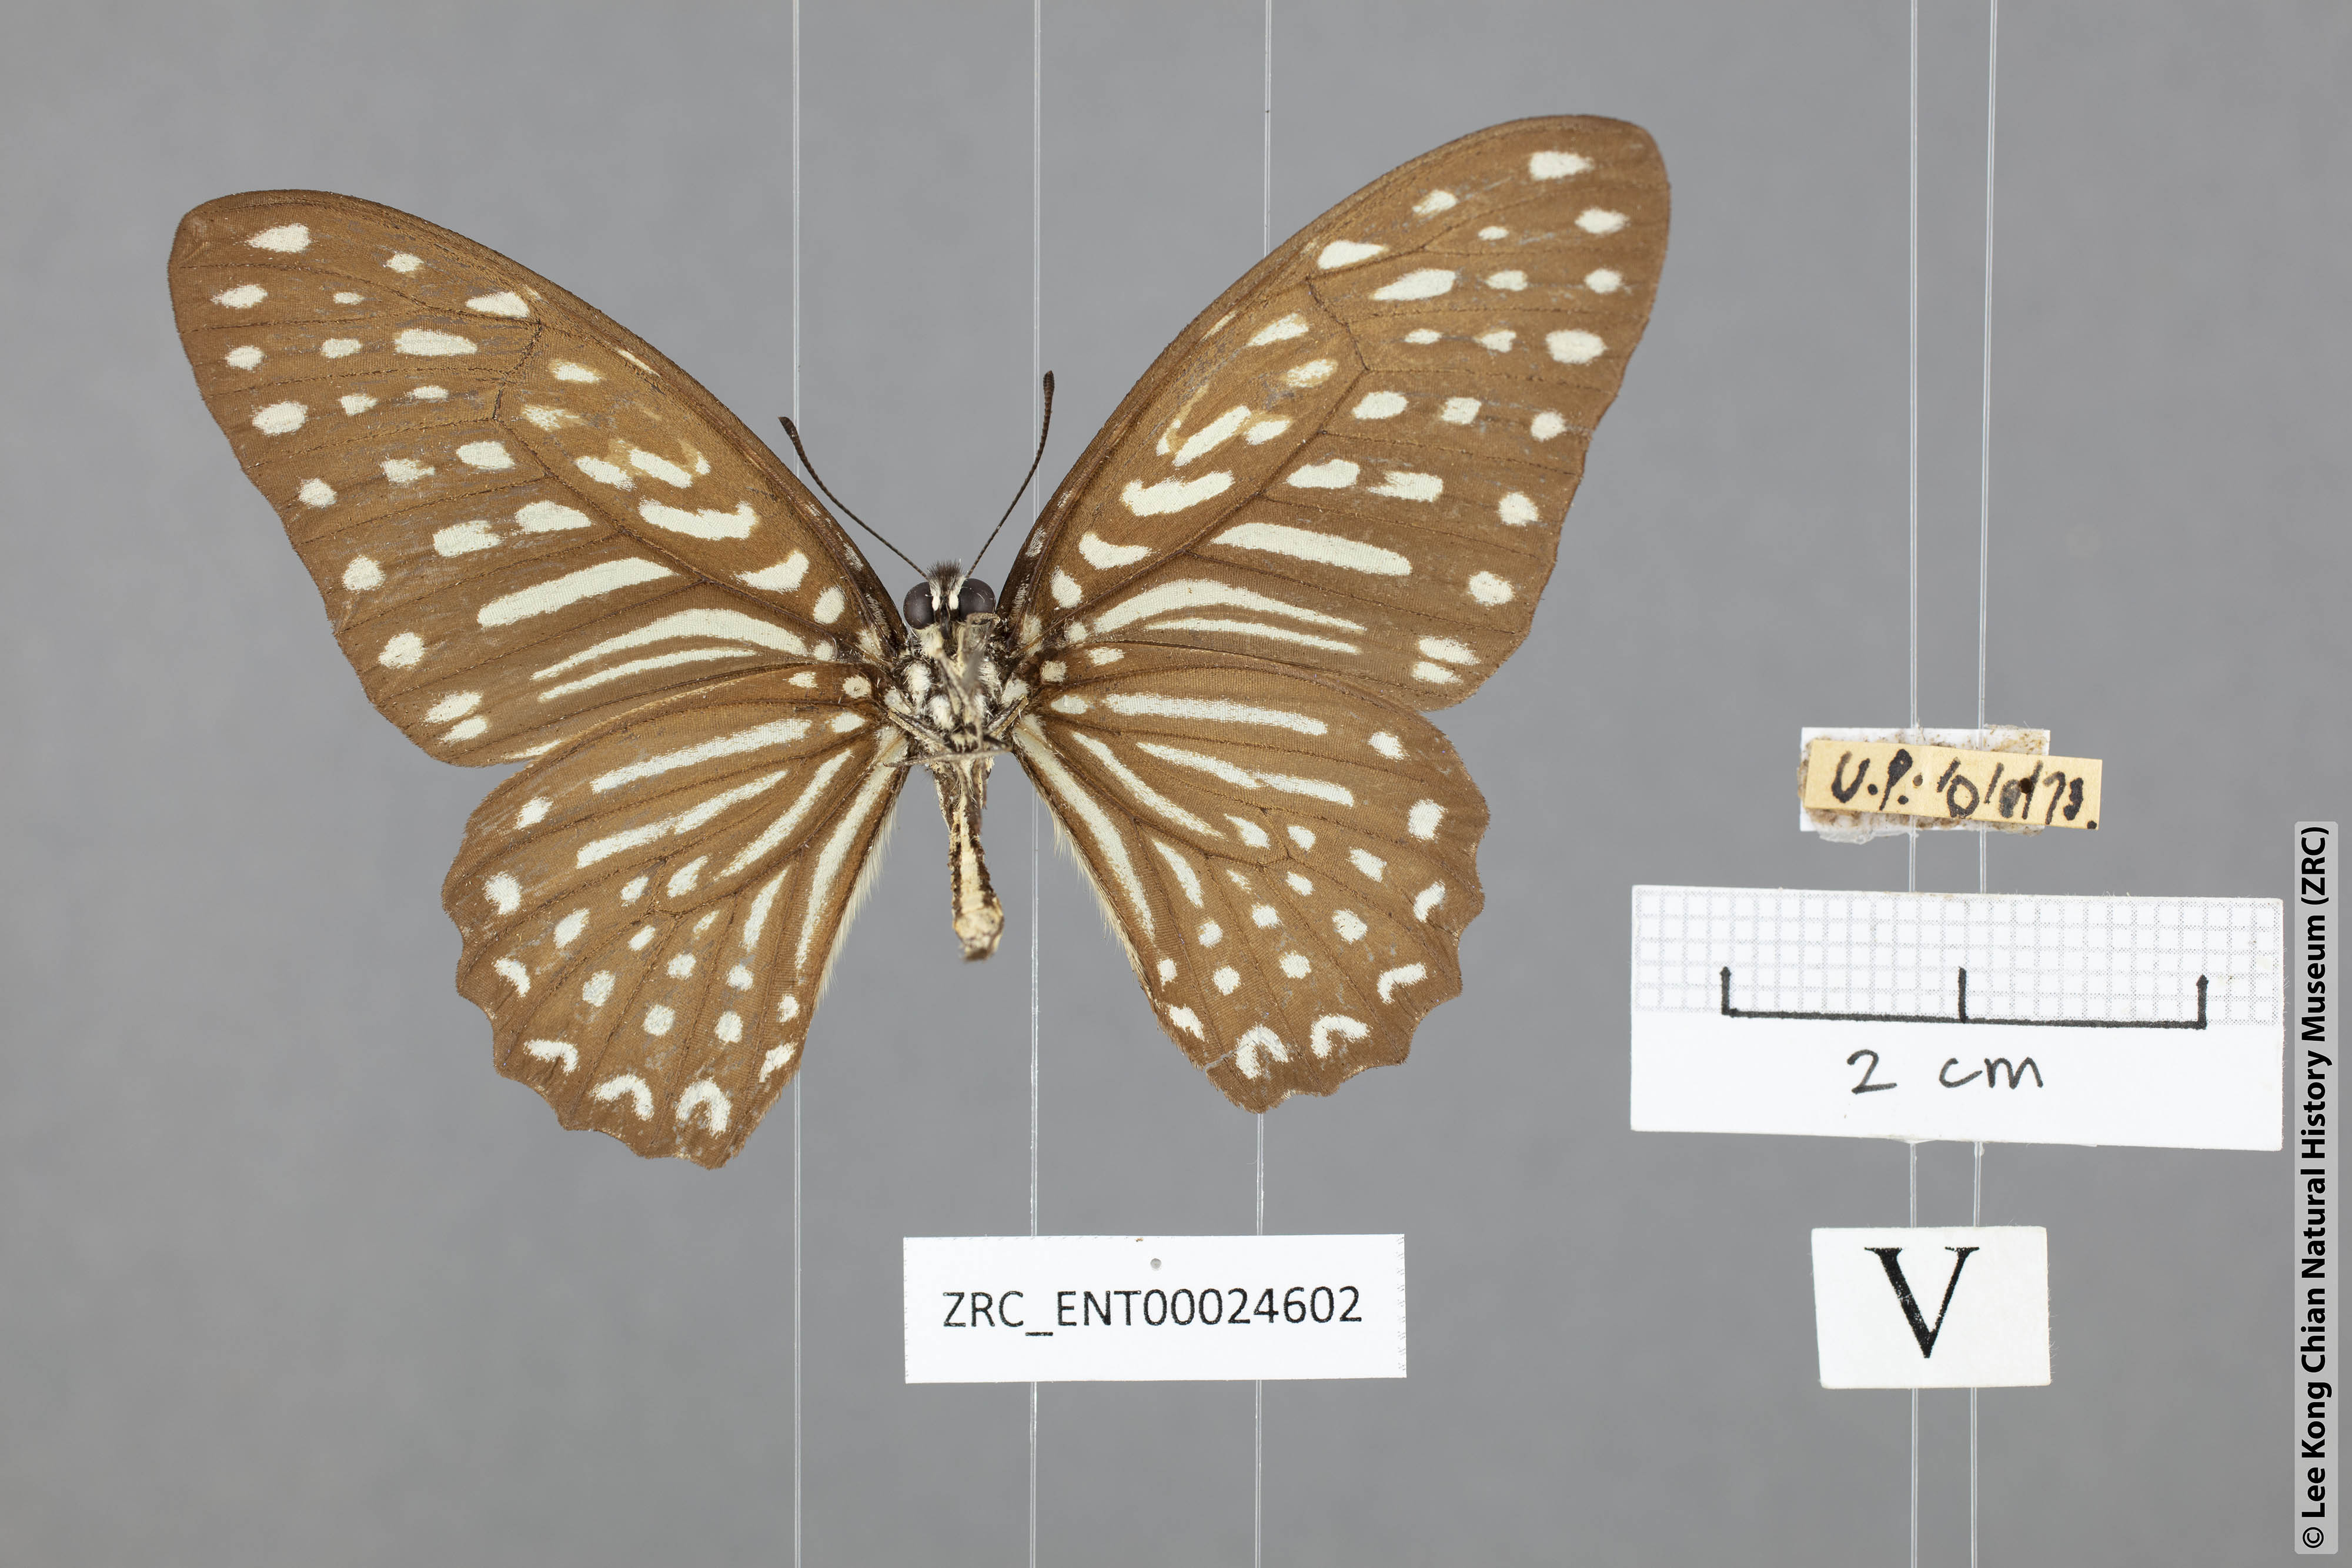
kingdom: Animalia
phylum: Arthropoda
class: Insecta
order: Lepidoptera
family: Papilionidae
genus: Graphium
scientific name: Graphium megarus
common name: Spotted zebra
